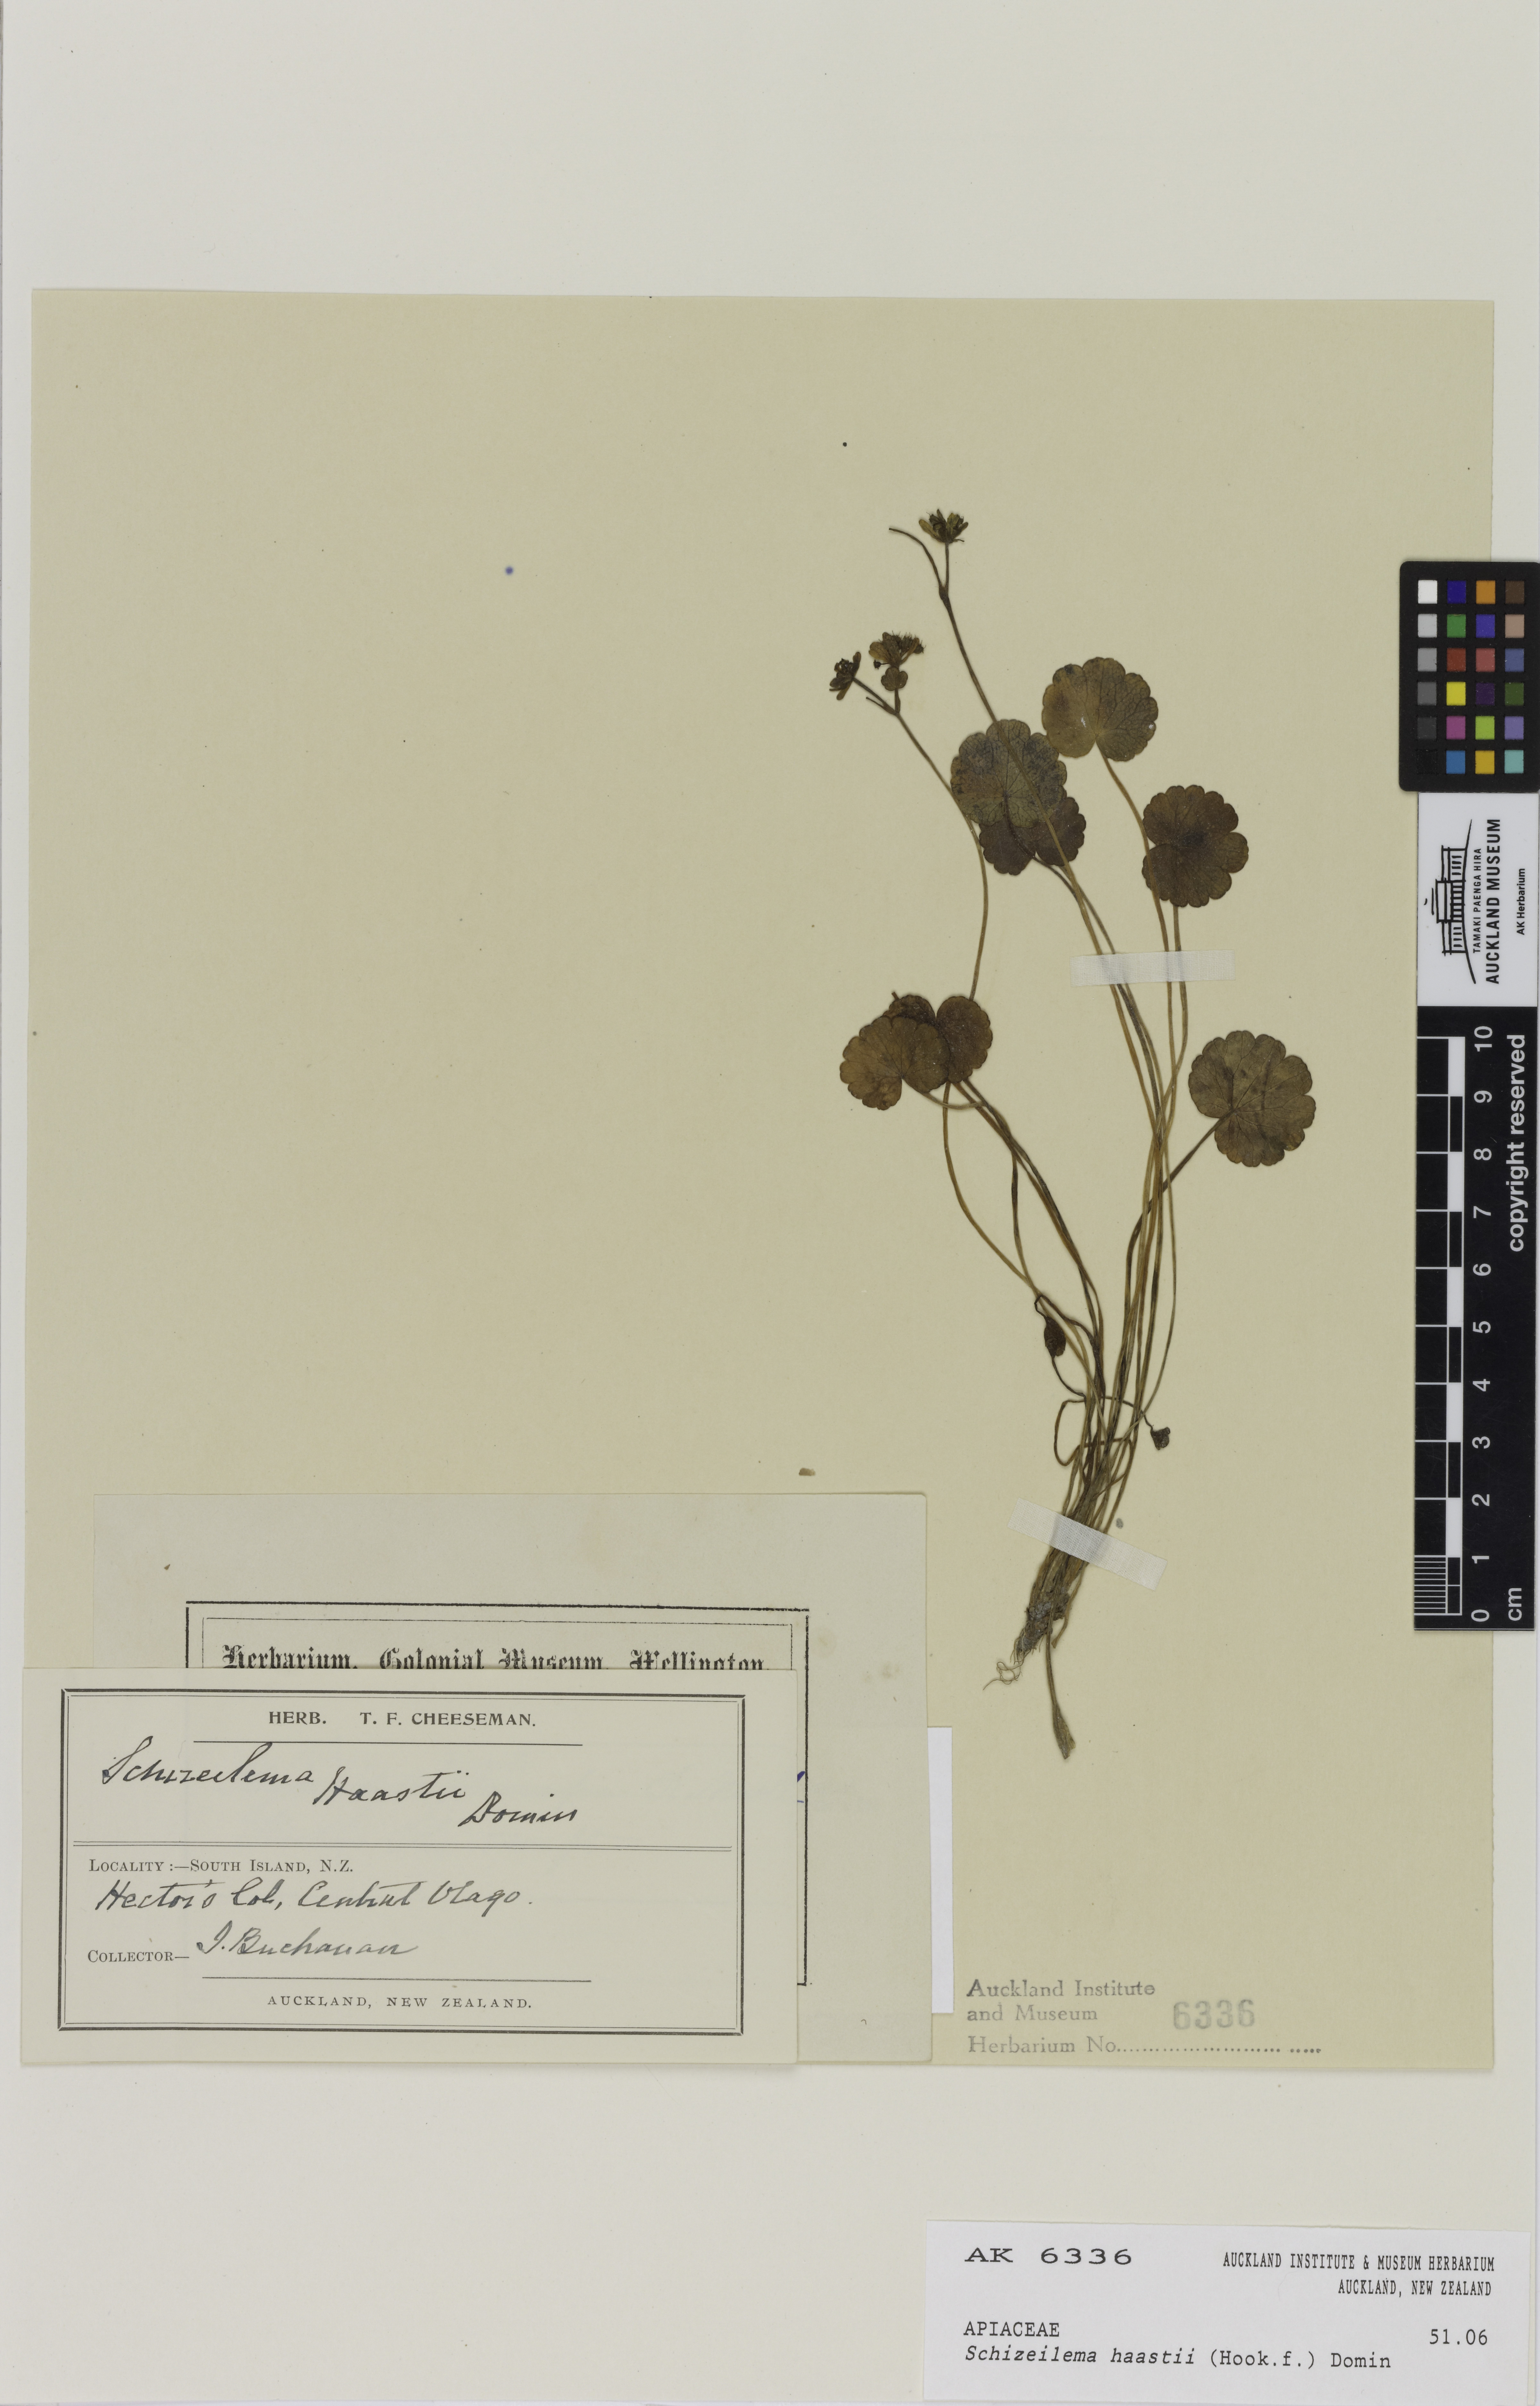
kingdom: Plantae
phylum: Tracheophyta
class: Magnoliopsida
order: Apiales
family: Apiaceae
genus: Azorella
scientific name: Azorella haastii
